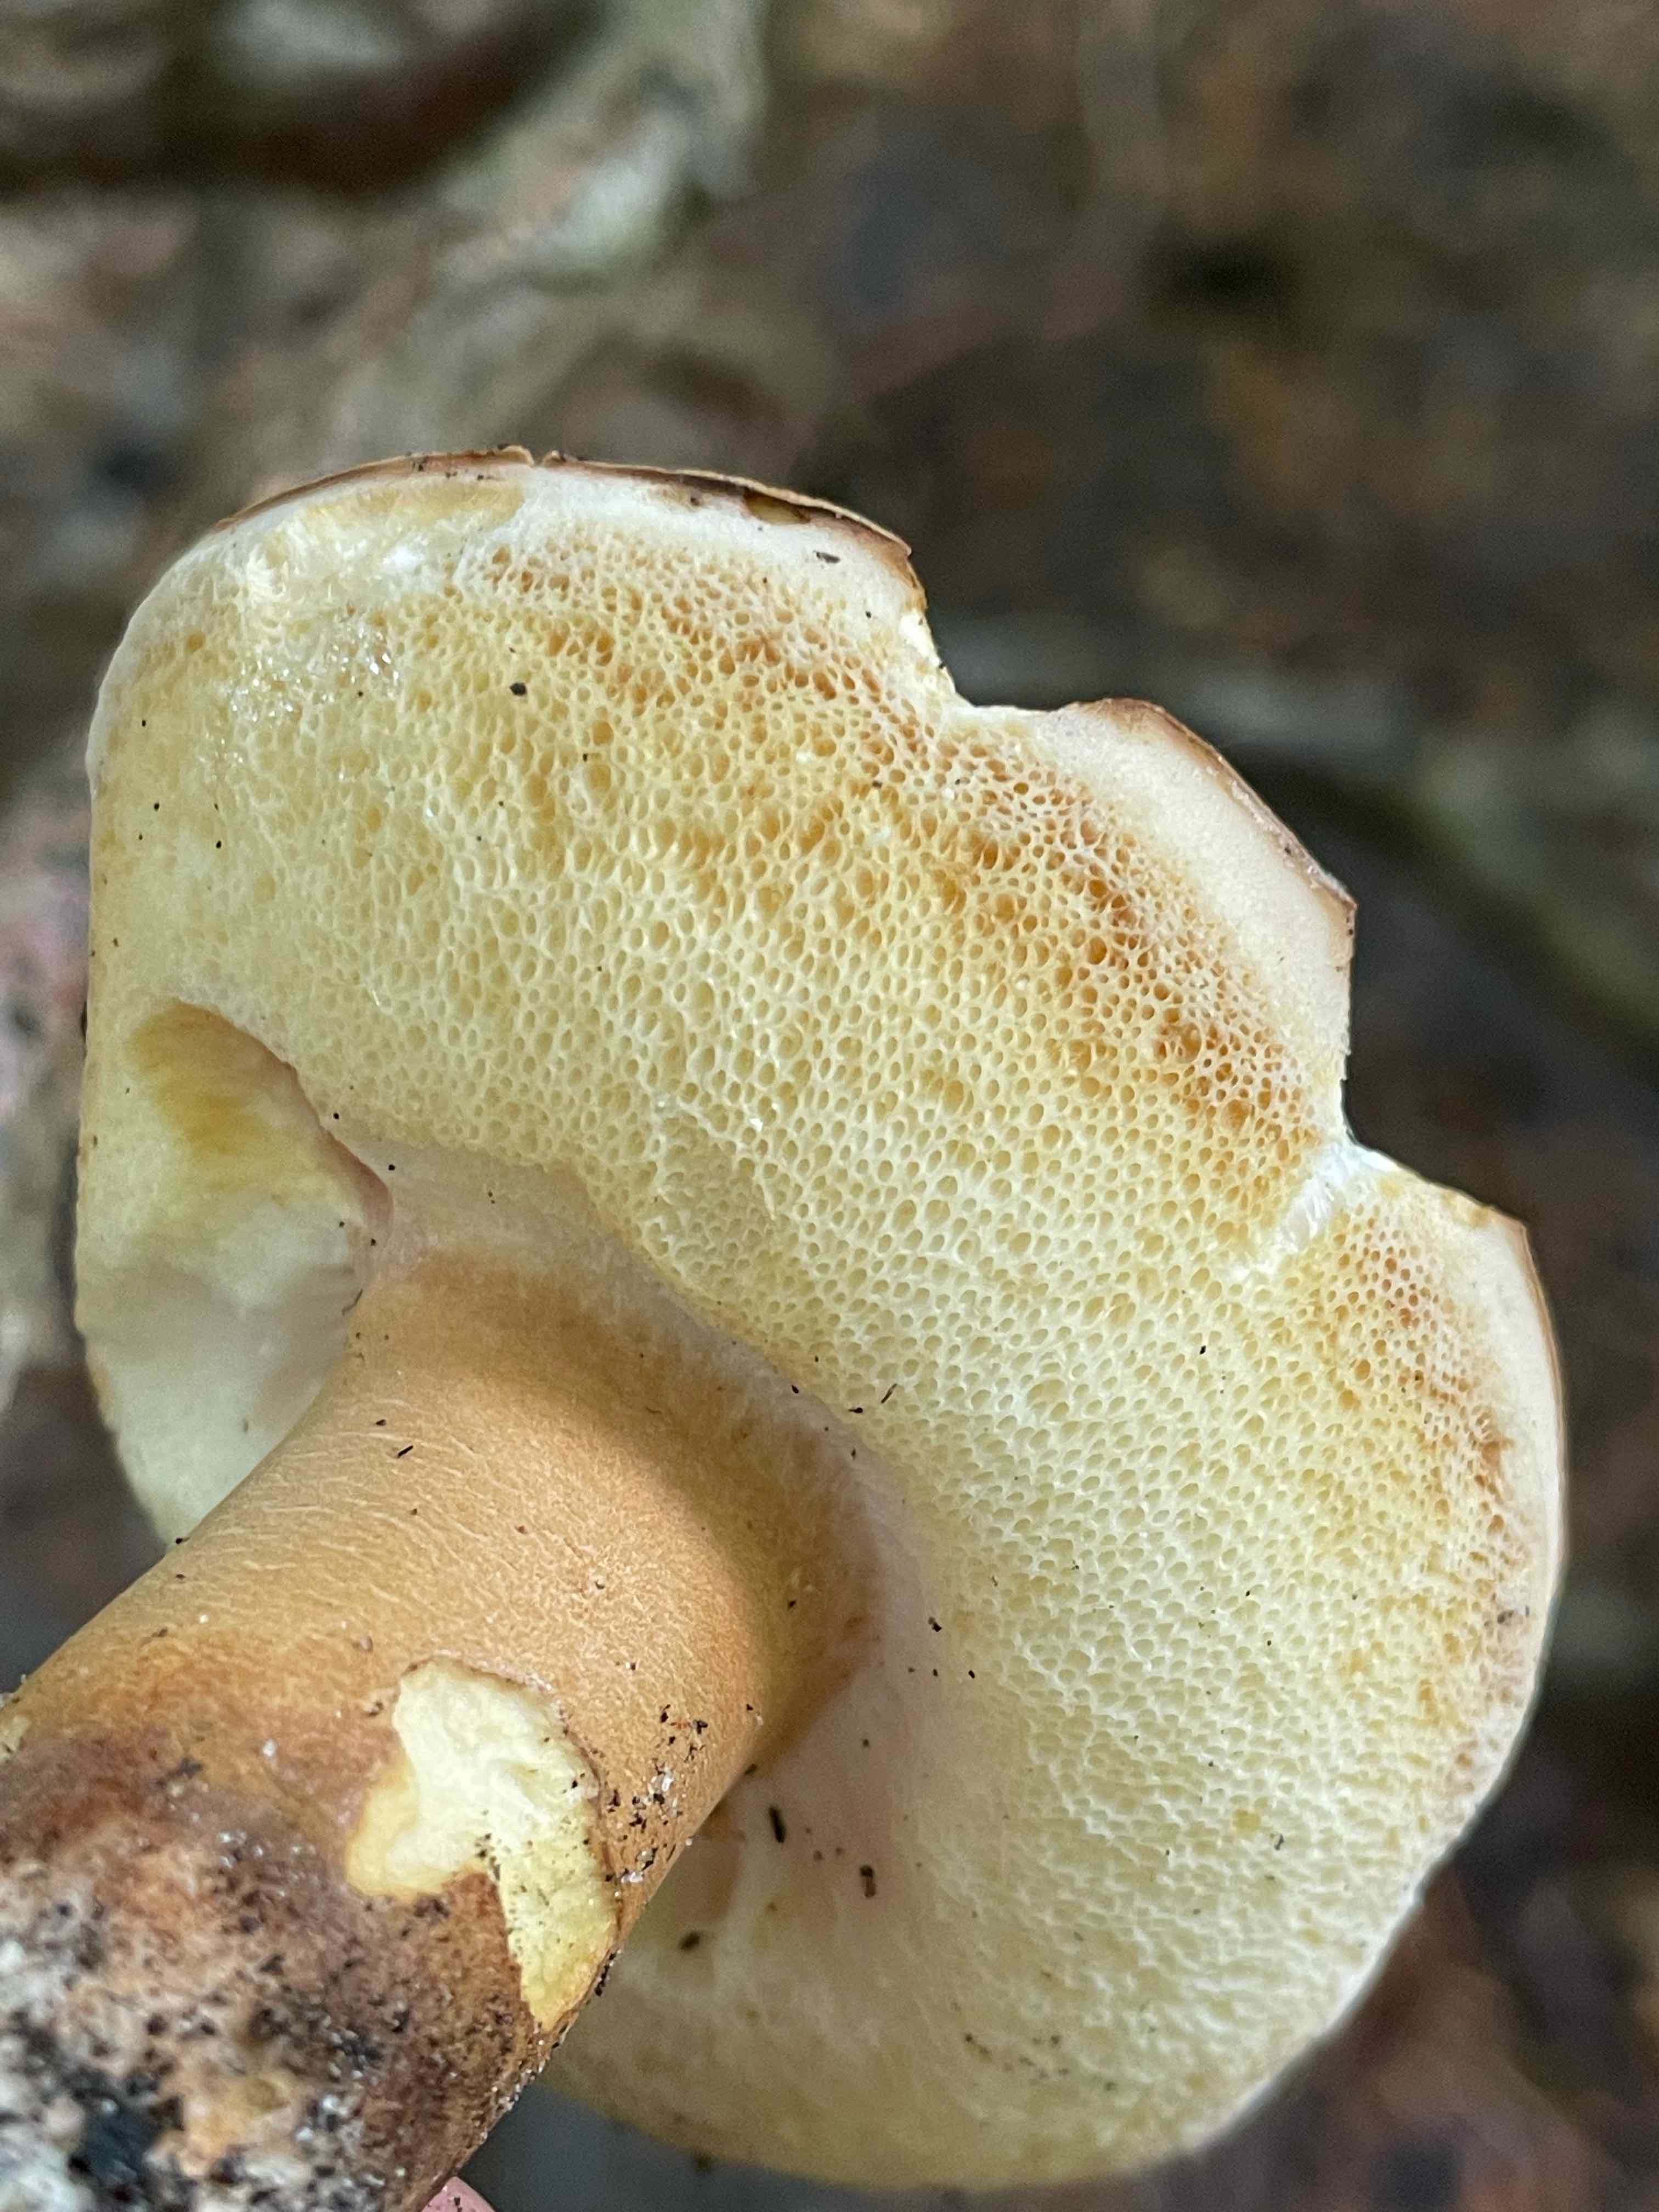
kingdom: Fungi
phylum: Basidiomycota
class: Agaricomycetes
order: Boletales
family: Gyroporaceae
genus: Gyroporus
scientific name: Gyroporus castaneus
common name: kastanie-kammerrørhat
